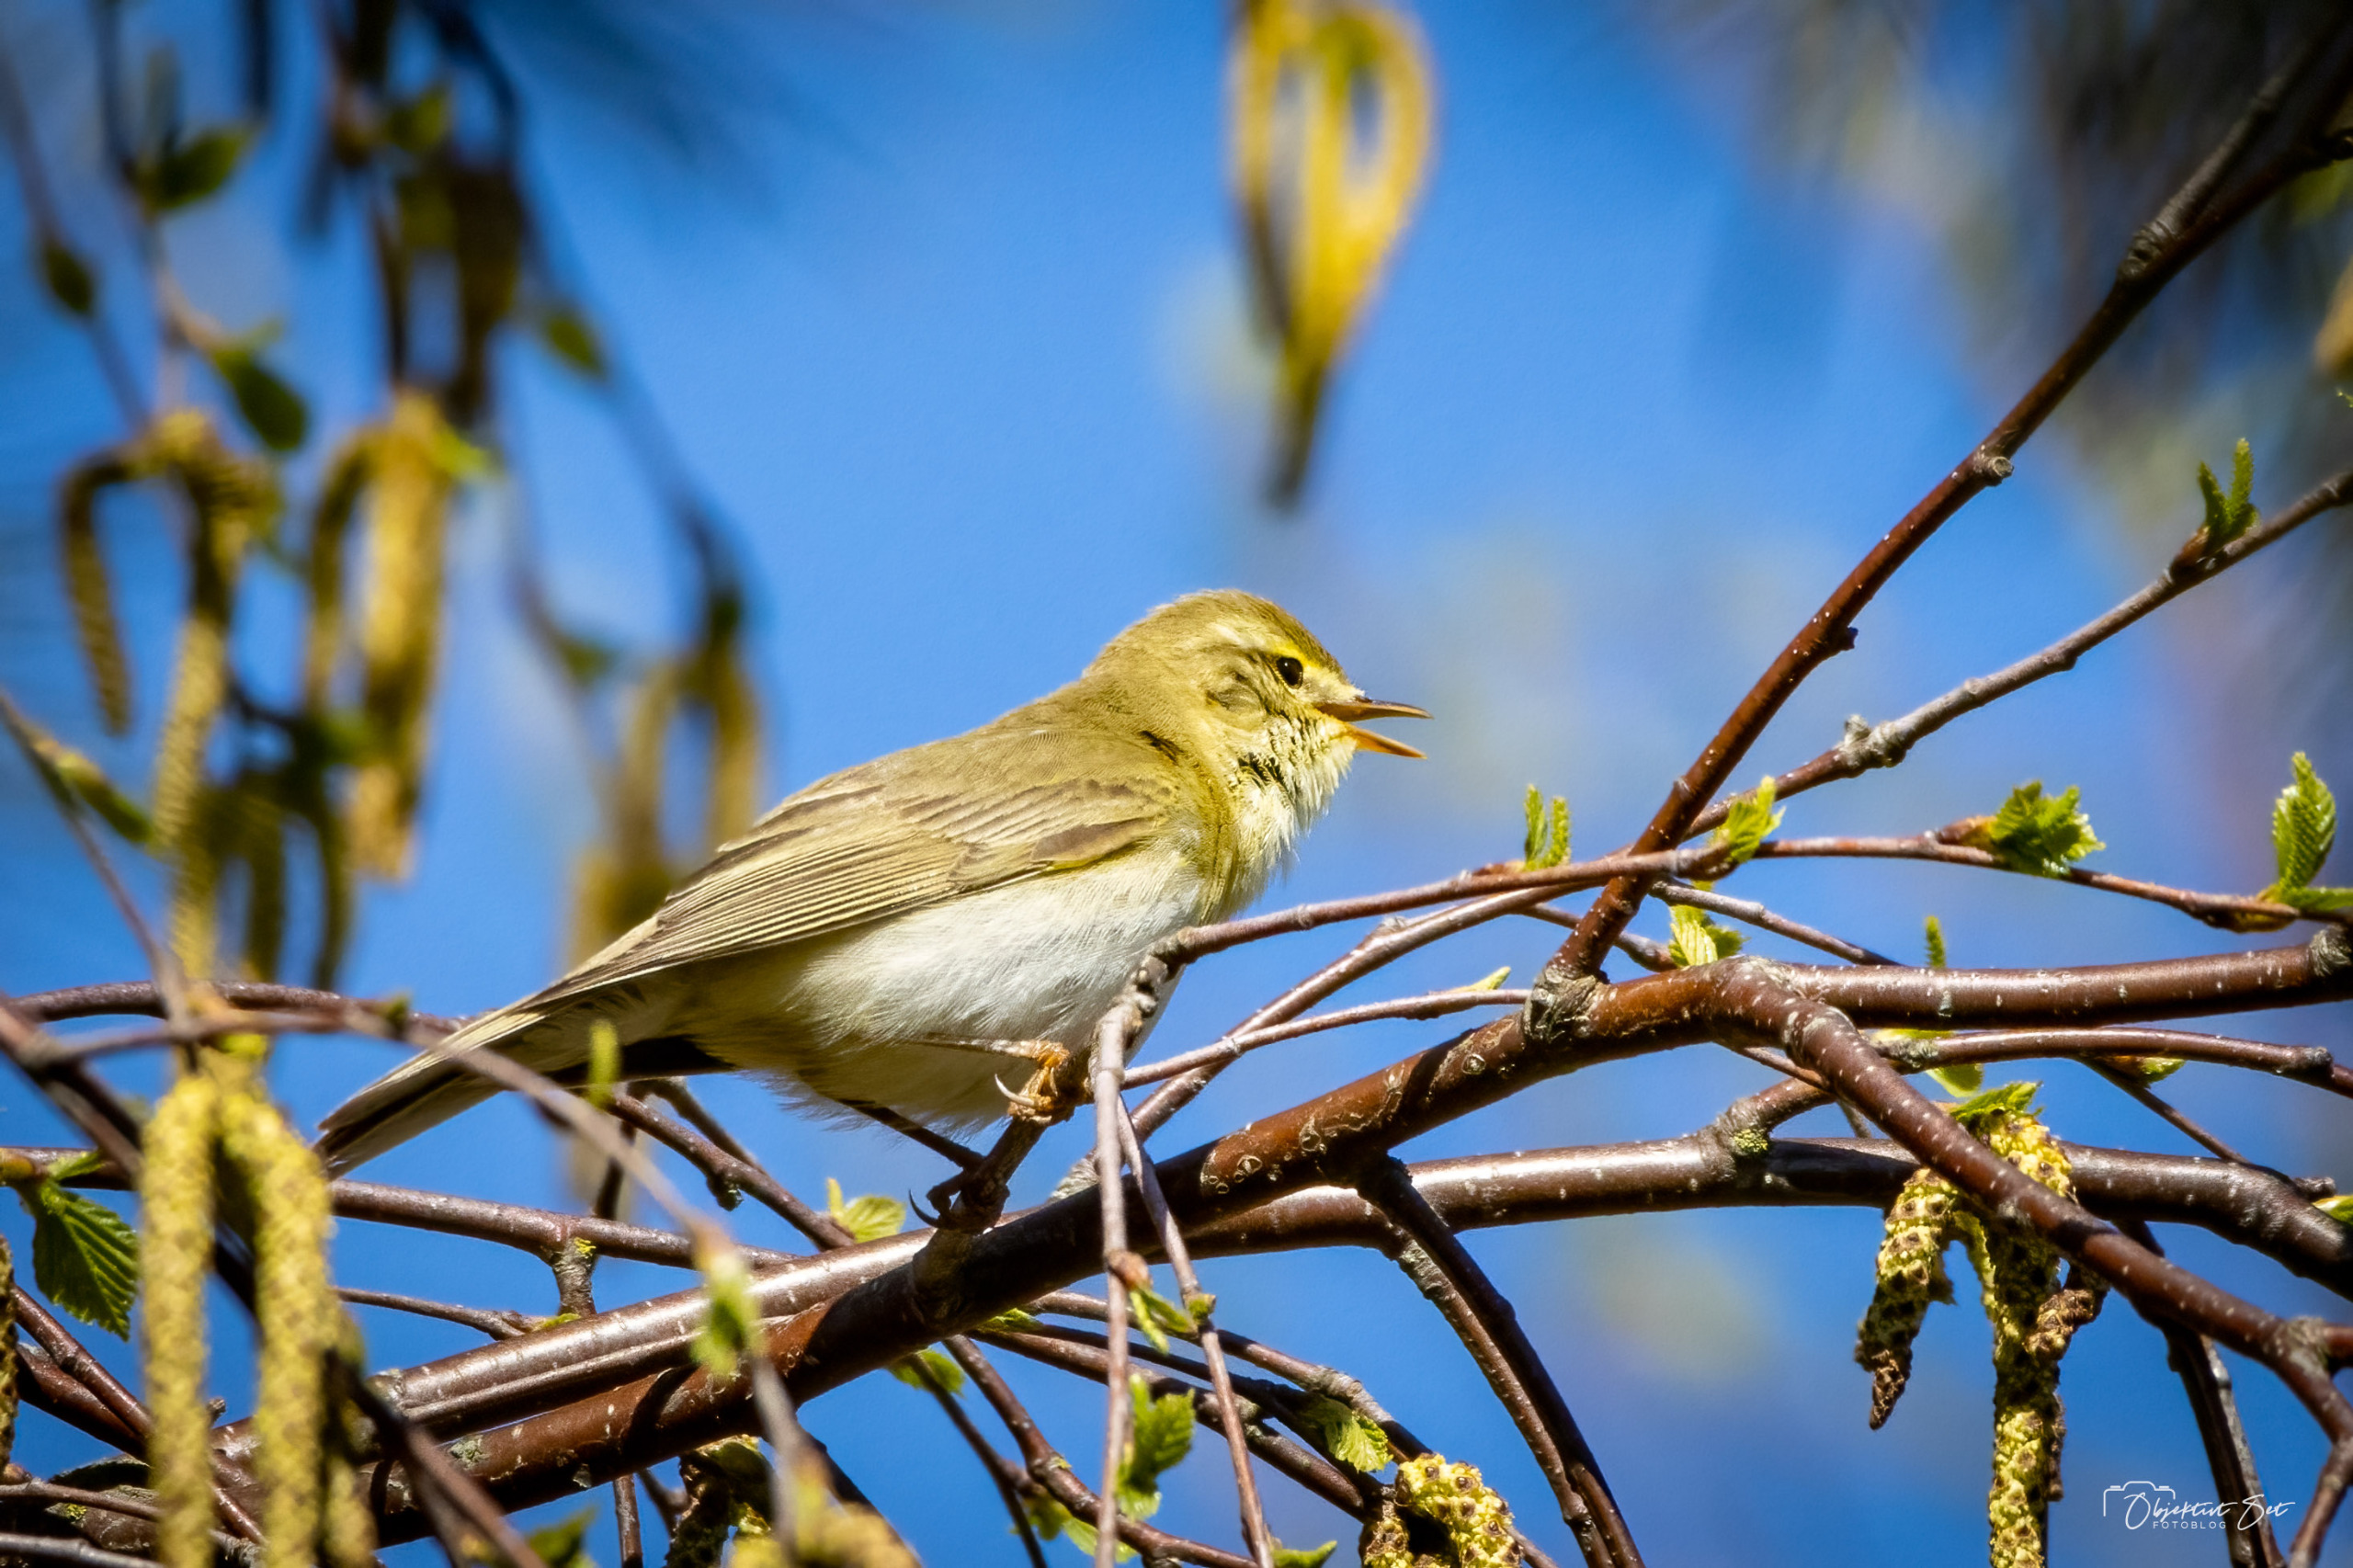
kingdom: Animalia
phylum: Chordata
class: Aves
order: Passeriformes
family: Phylloscopidae
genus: Phylloscopus
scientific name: Phylloscopus trochilus
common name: Løvsanger
